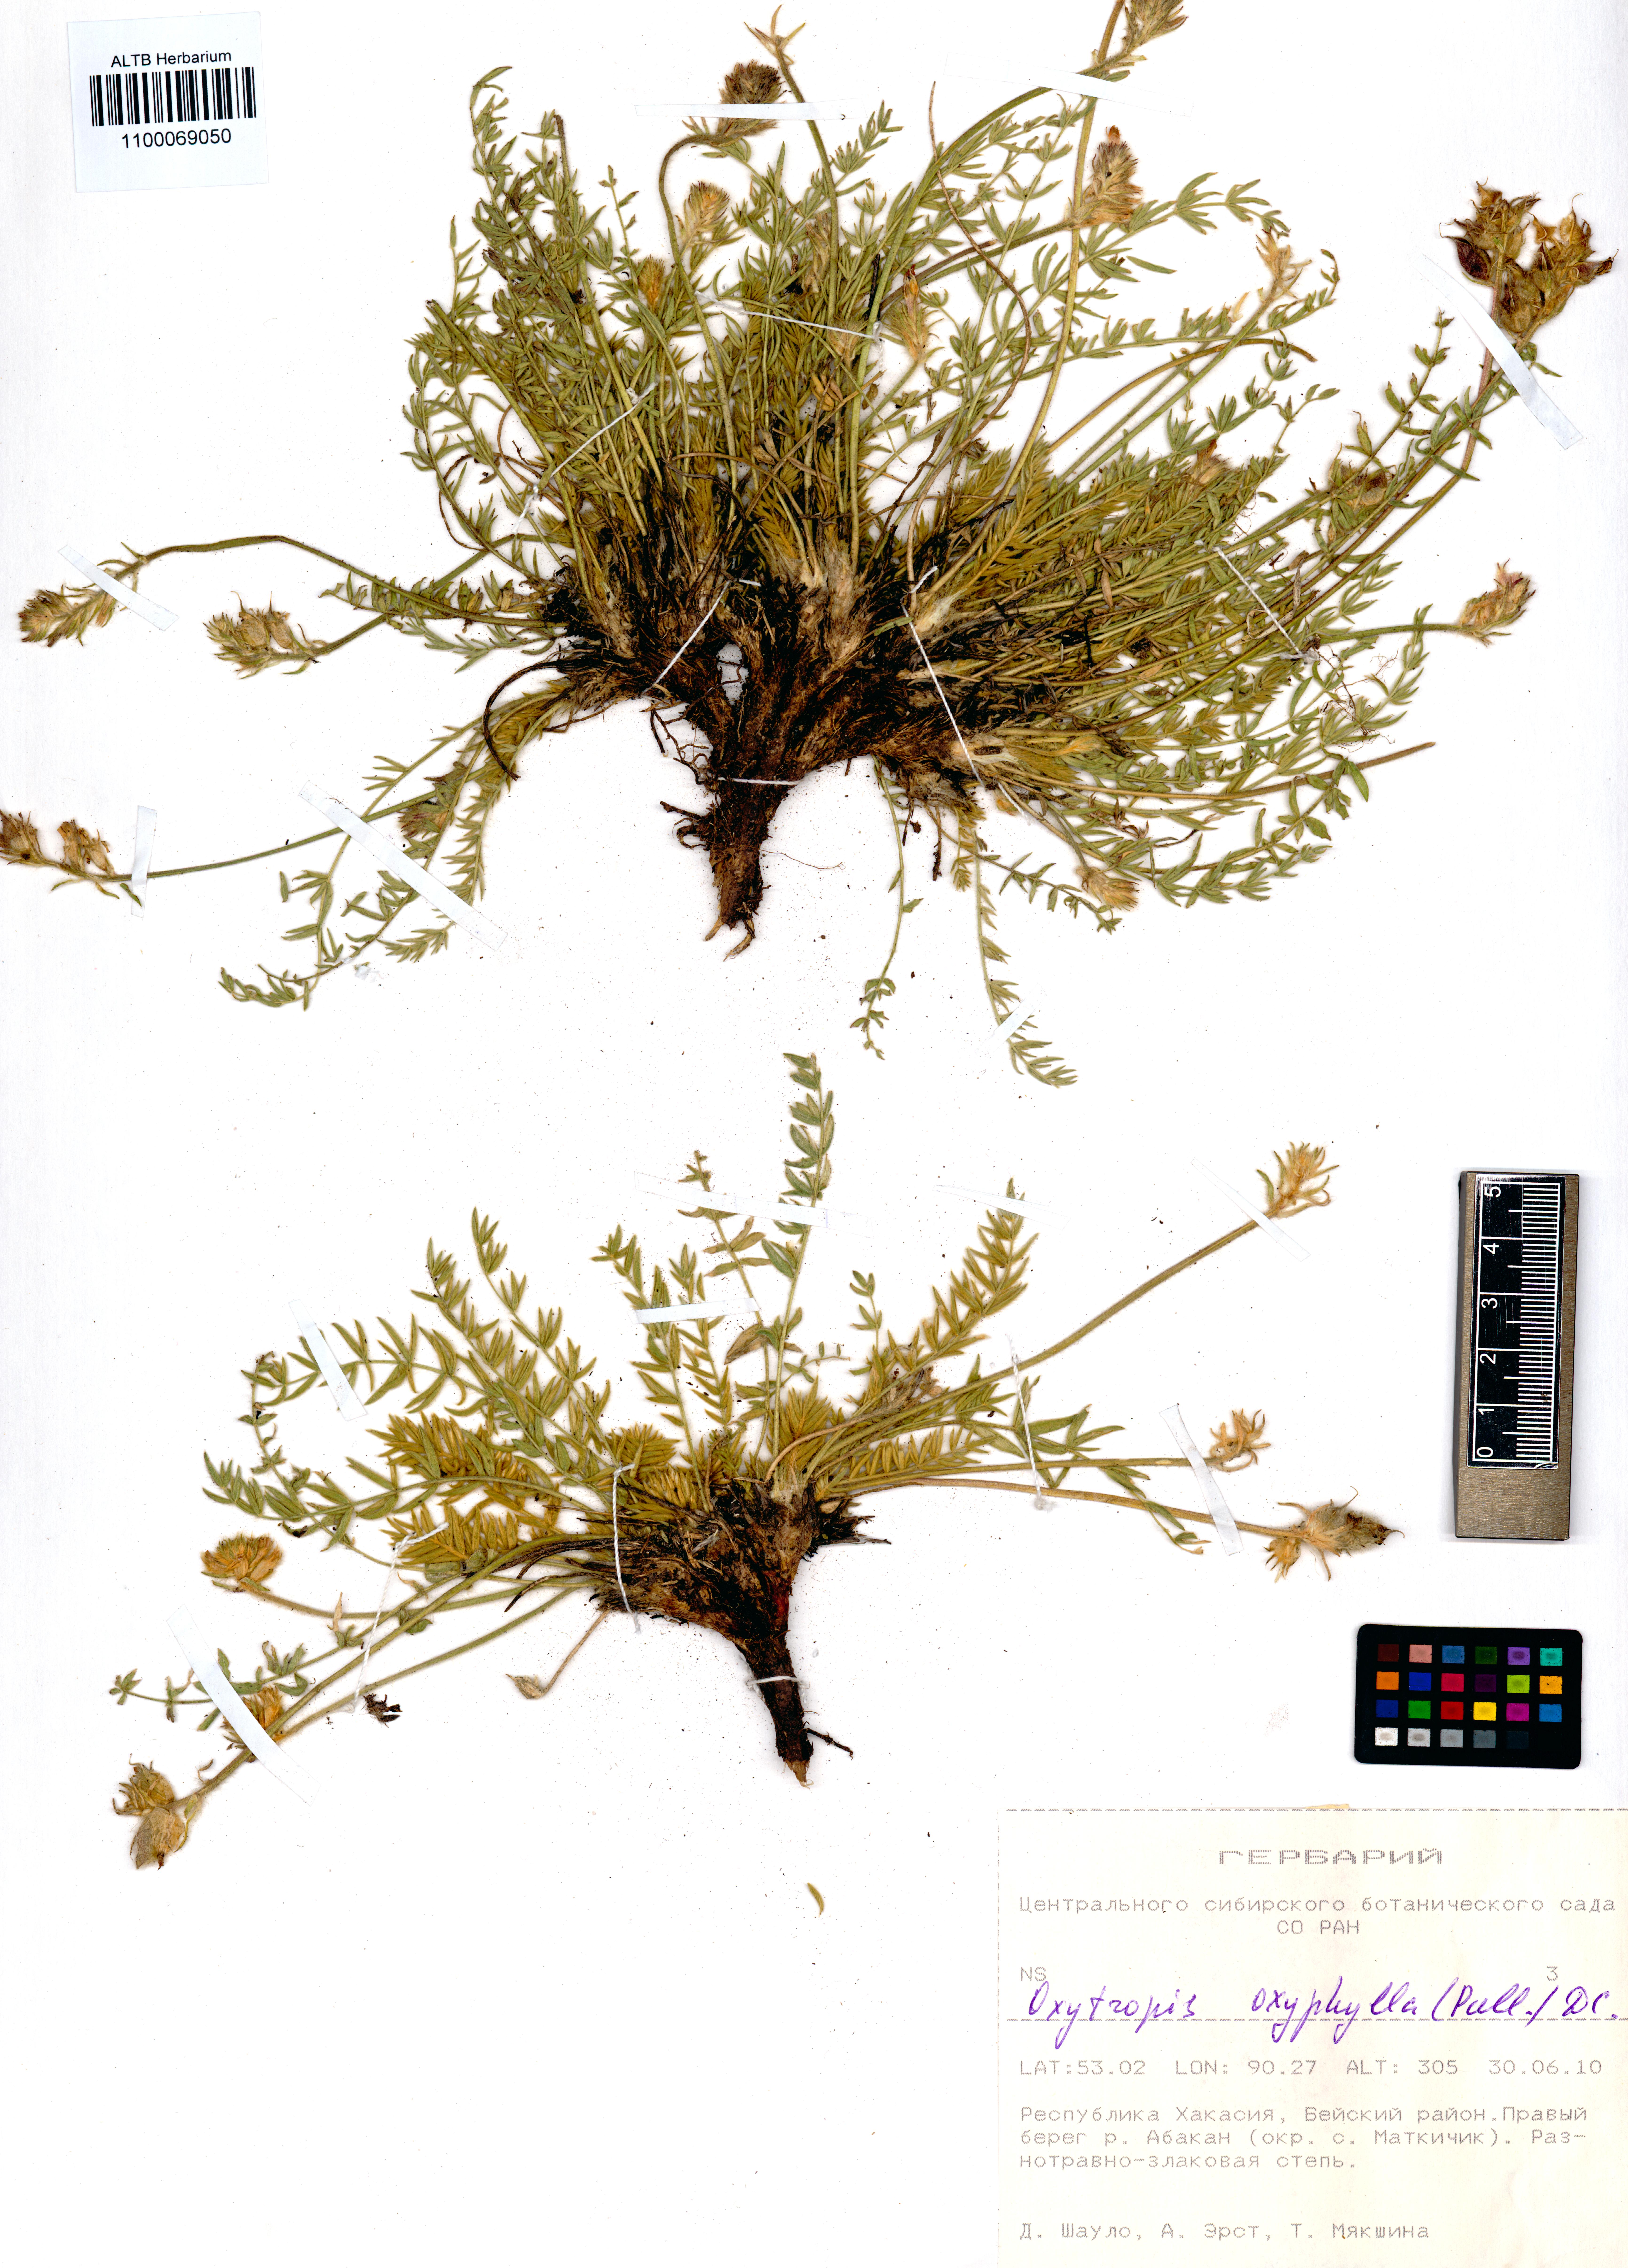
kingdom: Plantae
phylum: Tracheophyta
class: Magnoliopsida
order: Fabales
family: Fabaceae
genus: Oxytropis
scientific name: Oxytropis oxyphylla
